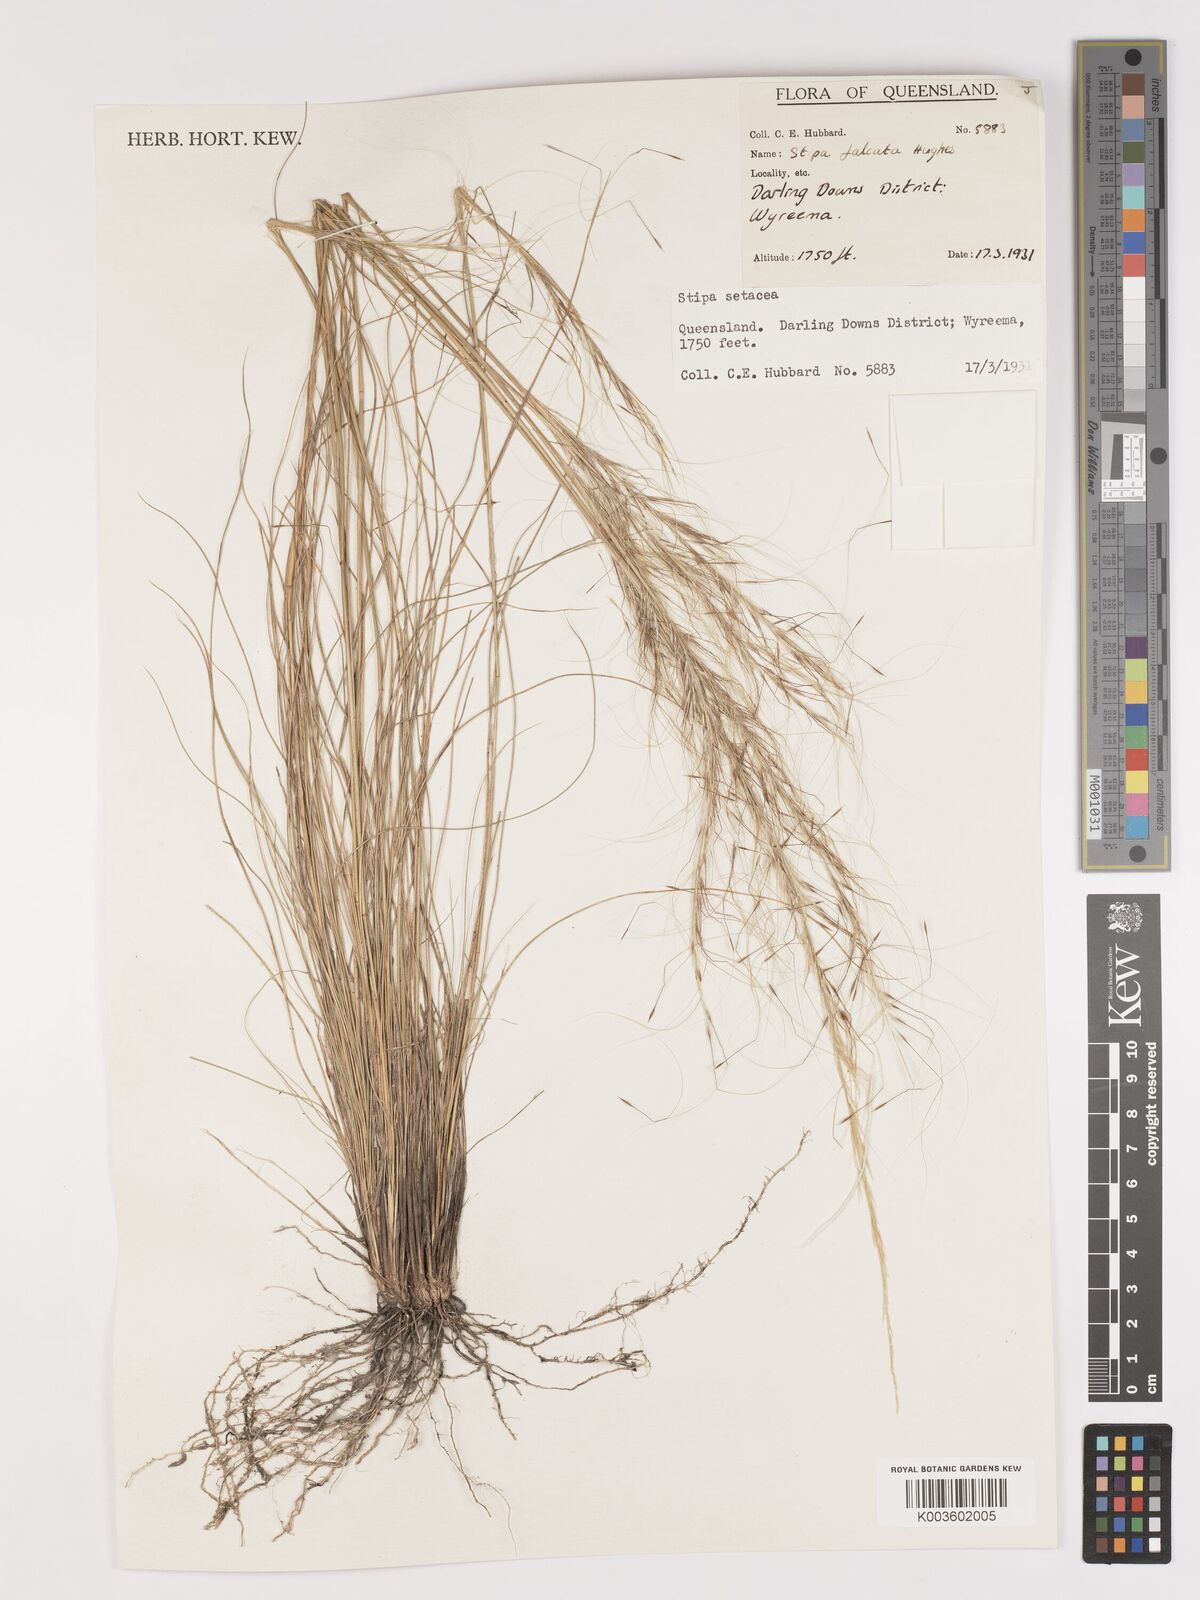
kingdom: Plantae
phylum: Tracheophyta
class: Liliopsida
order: Poales
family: Poaceae
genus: Austrostipa
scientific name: Austrostipa scabra
